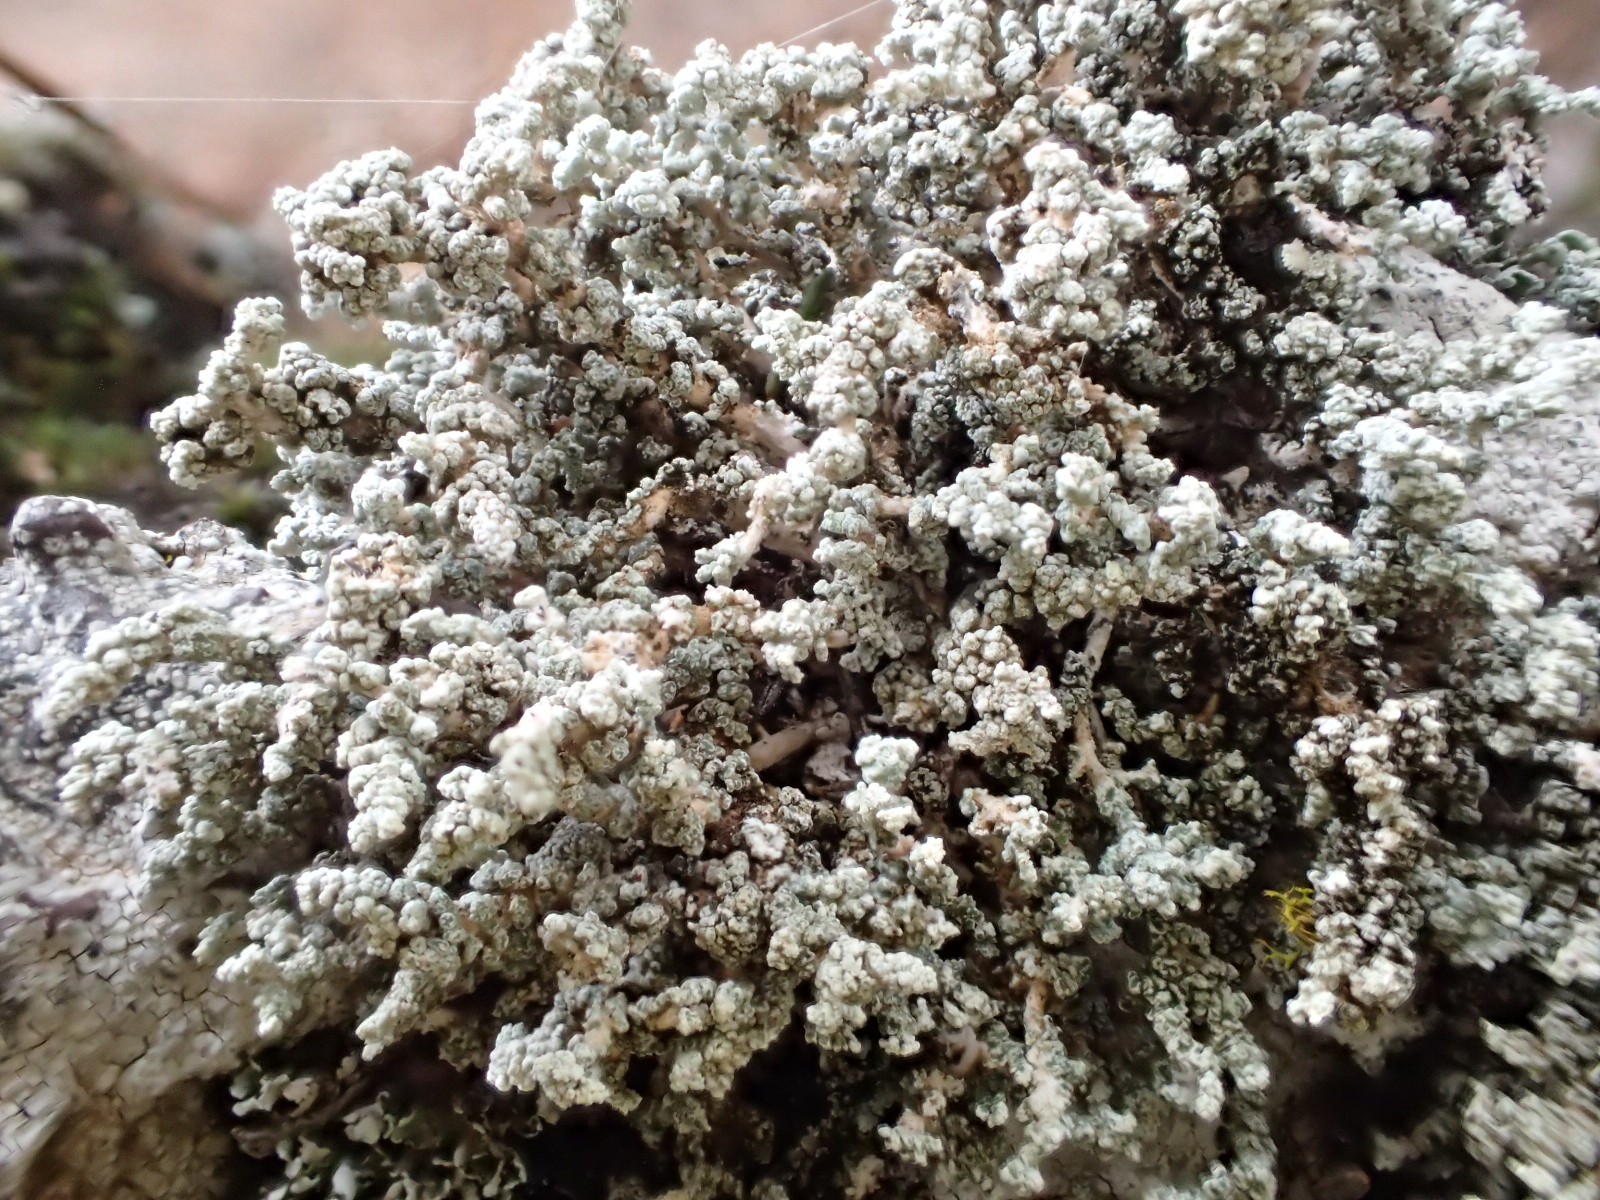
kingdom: Fungi
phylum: Ascomycota
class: Lecanoromycetes
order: Lecanorales
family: Stereocaulaceae
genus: Stereocaulon
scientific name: Stereocaulon vesuvianum
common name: skjold-korallav
